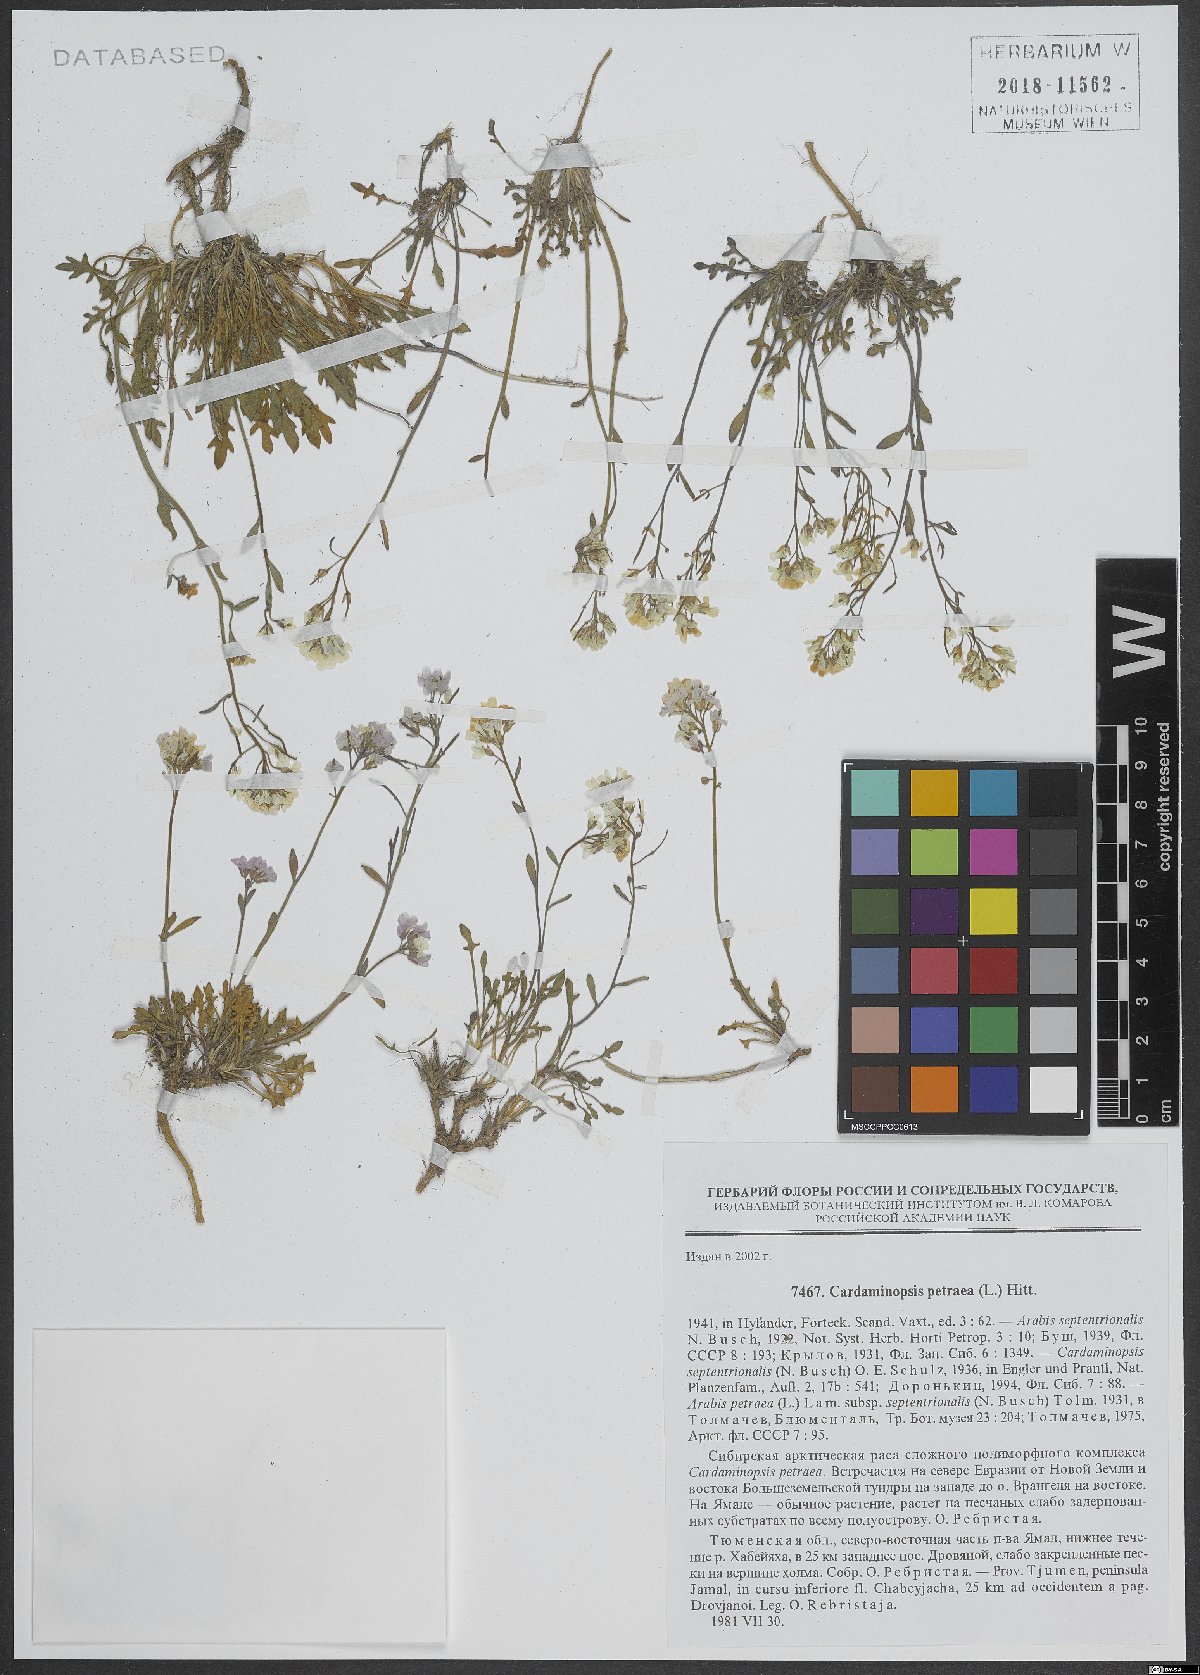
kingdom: Plantae
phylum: Tracheophyta
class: Magnoliopsida
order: Brassicales
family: Brassicaceae
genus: Arabidopsis
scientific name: Arabidopsis lyrata
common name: Lyrate rockcress
